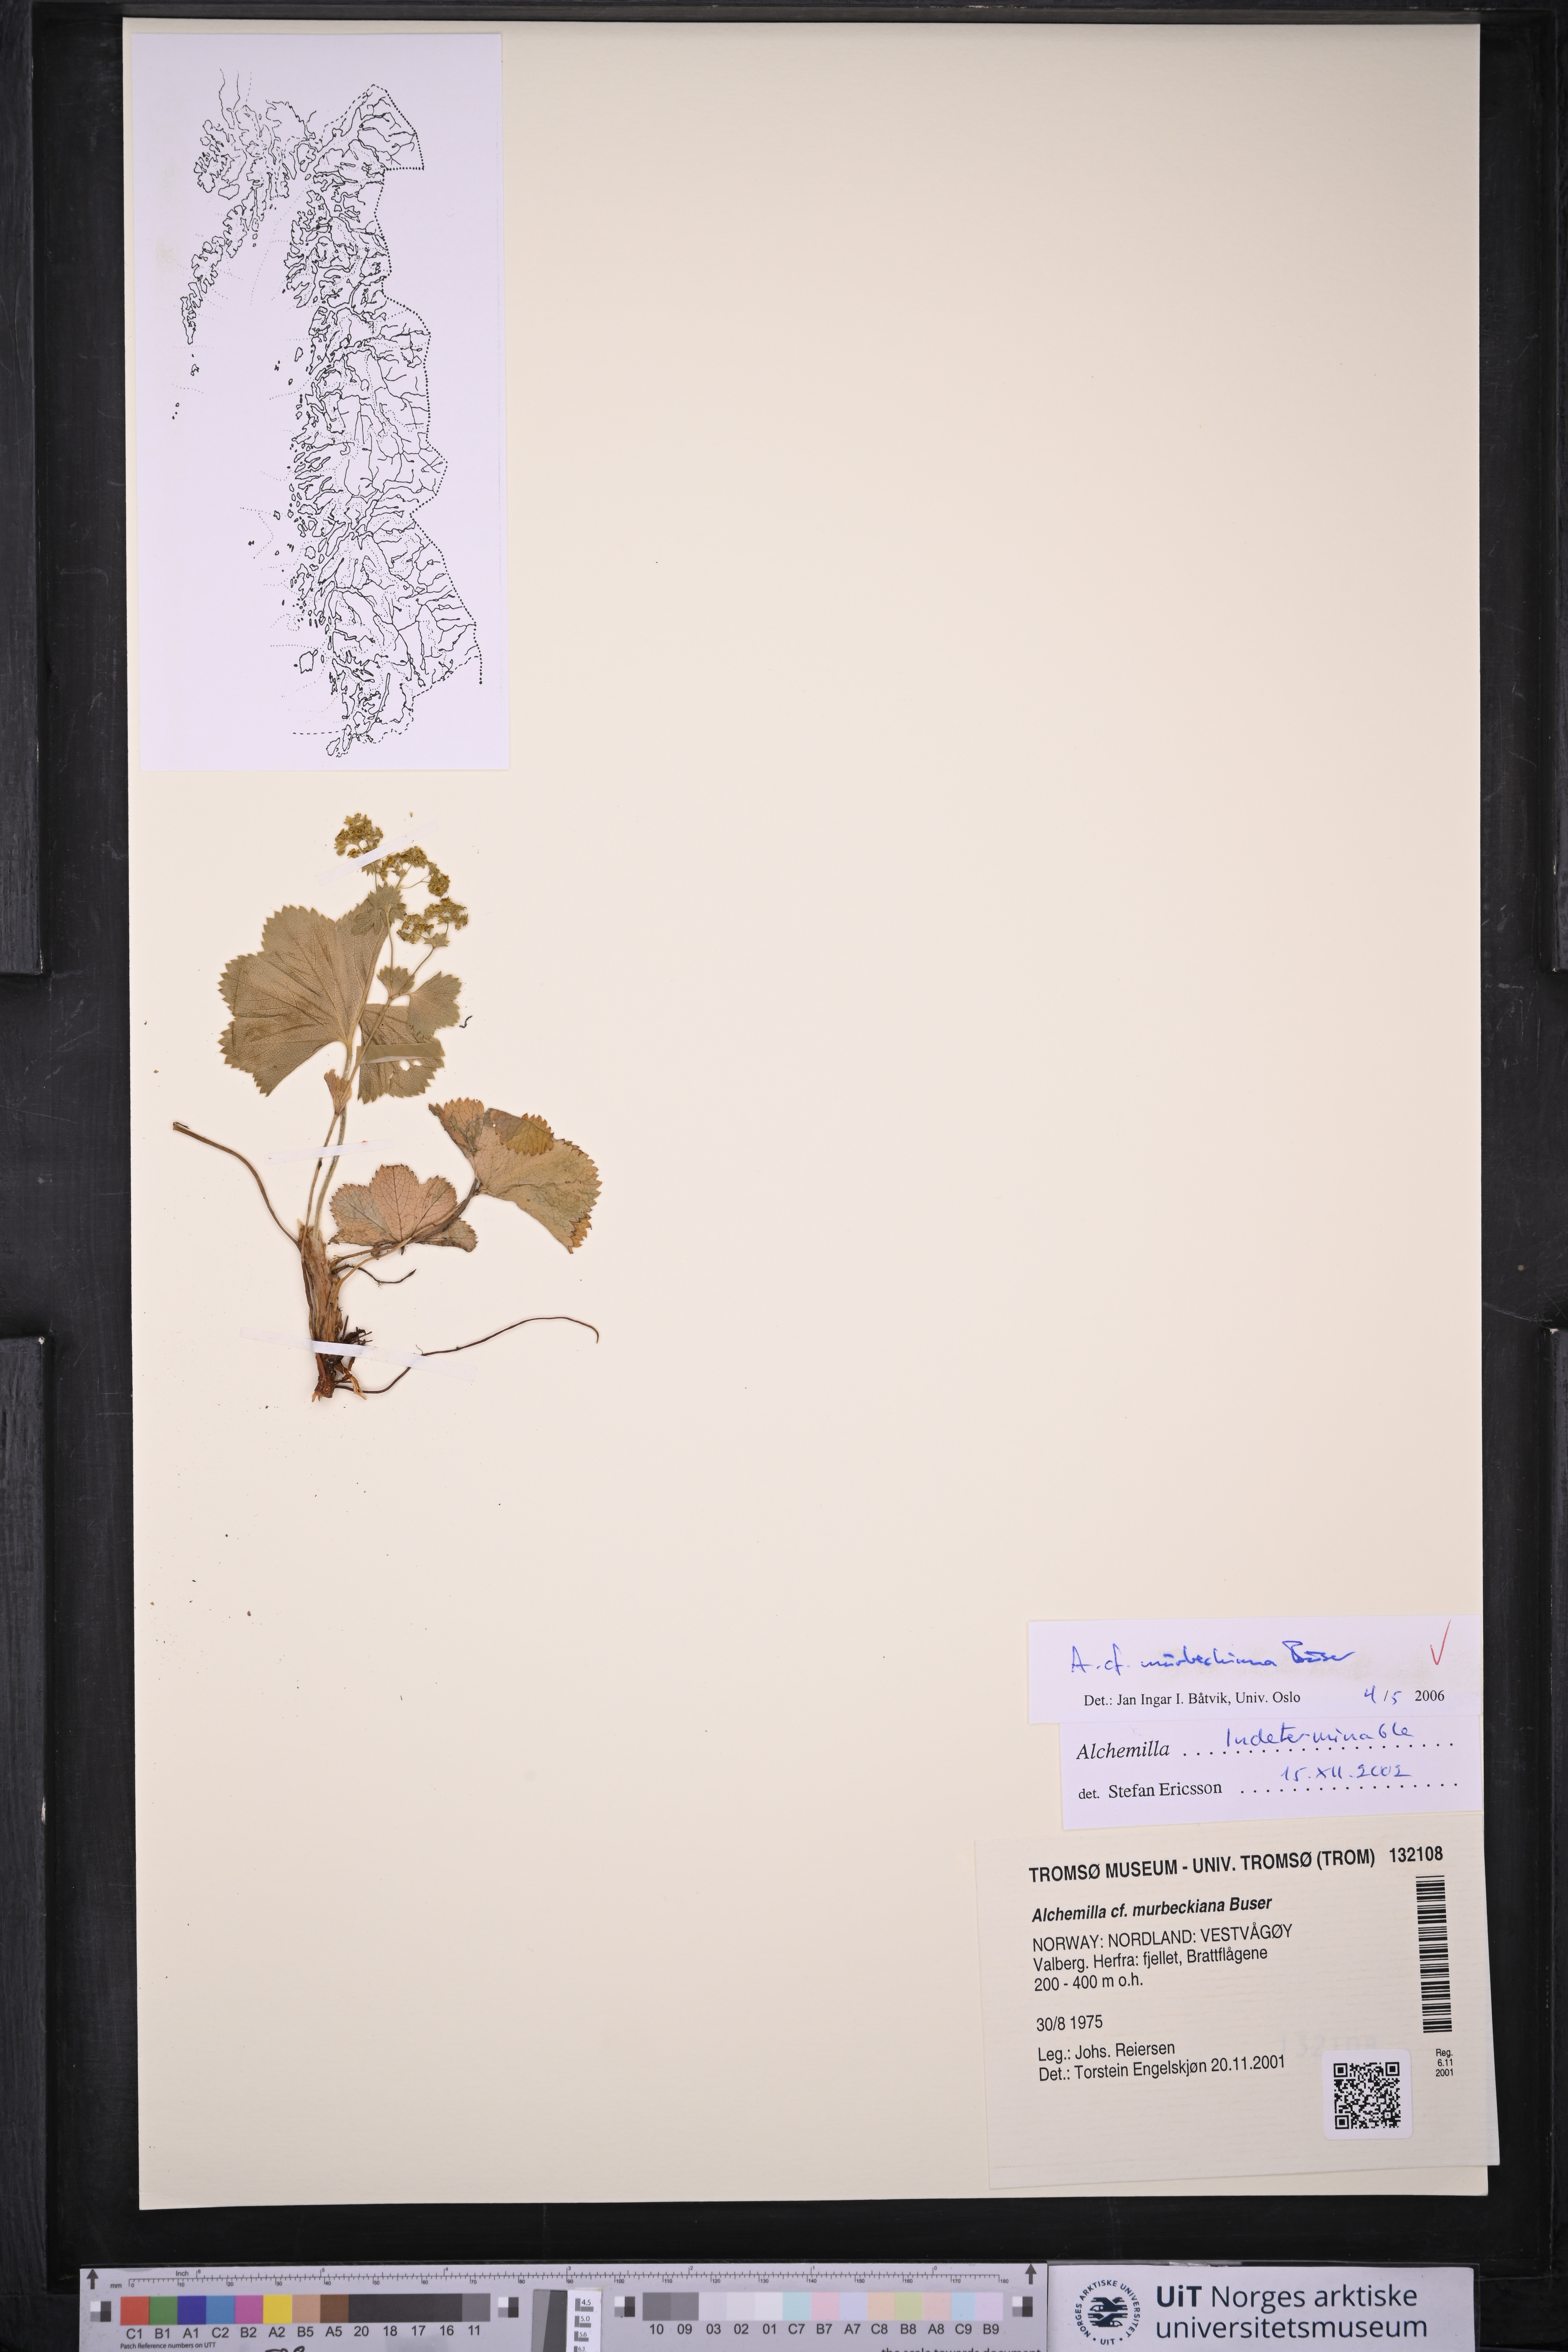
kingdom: Plantae
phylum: Tracheophyta
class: Magnoliopsida
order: Rosales
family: Rosaceae
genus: Alchemilla
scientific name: Alchemilla murbeckiana
